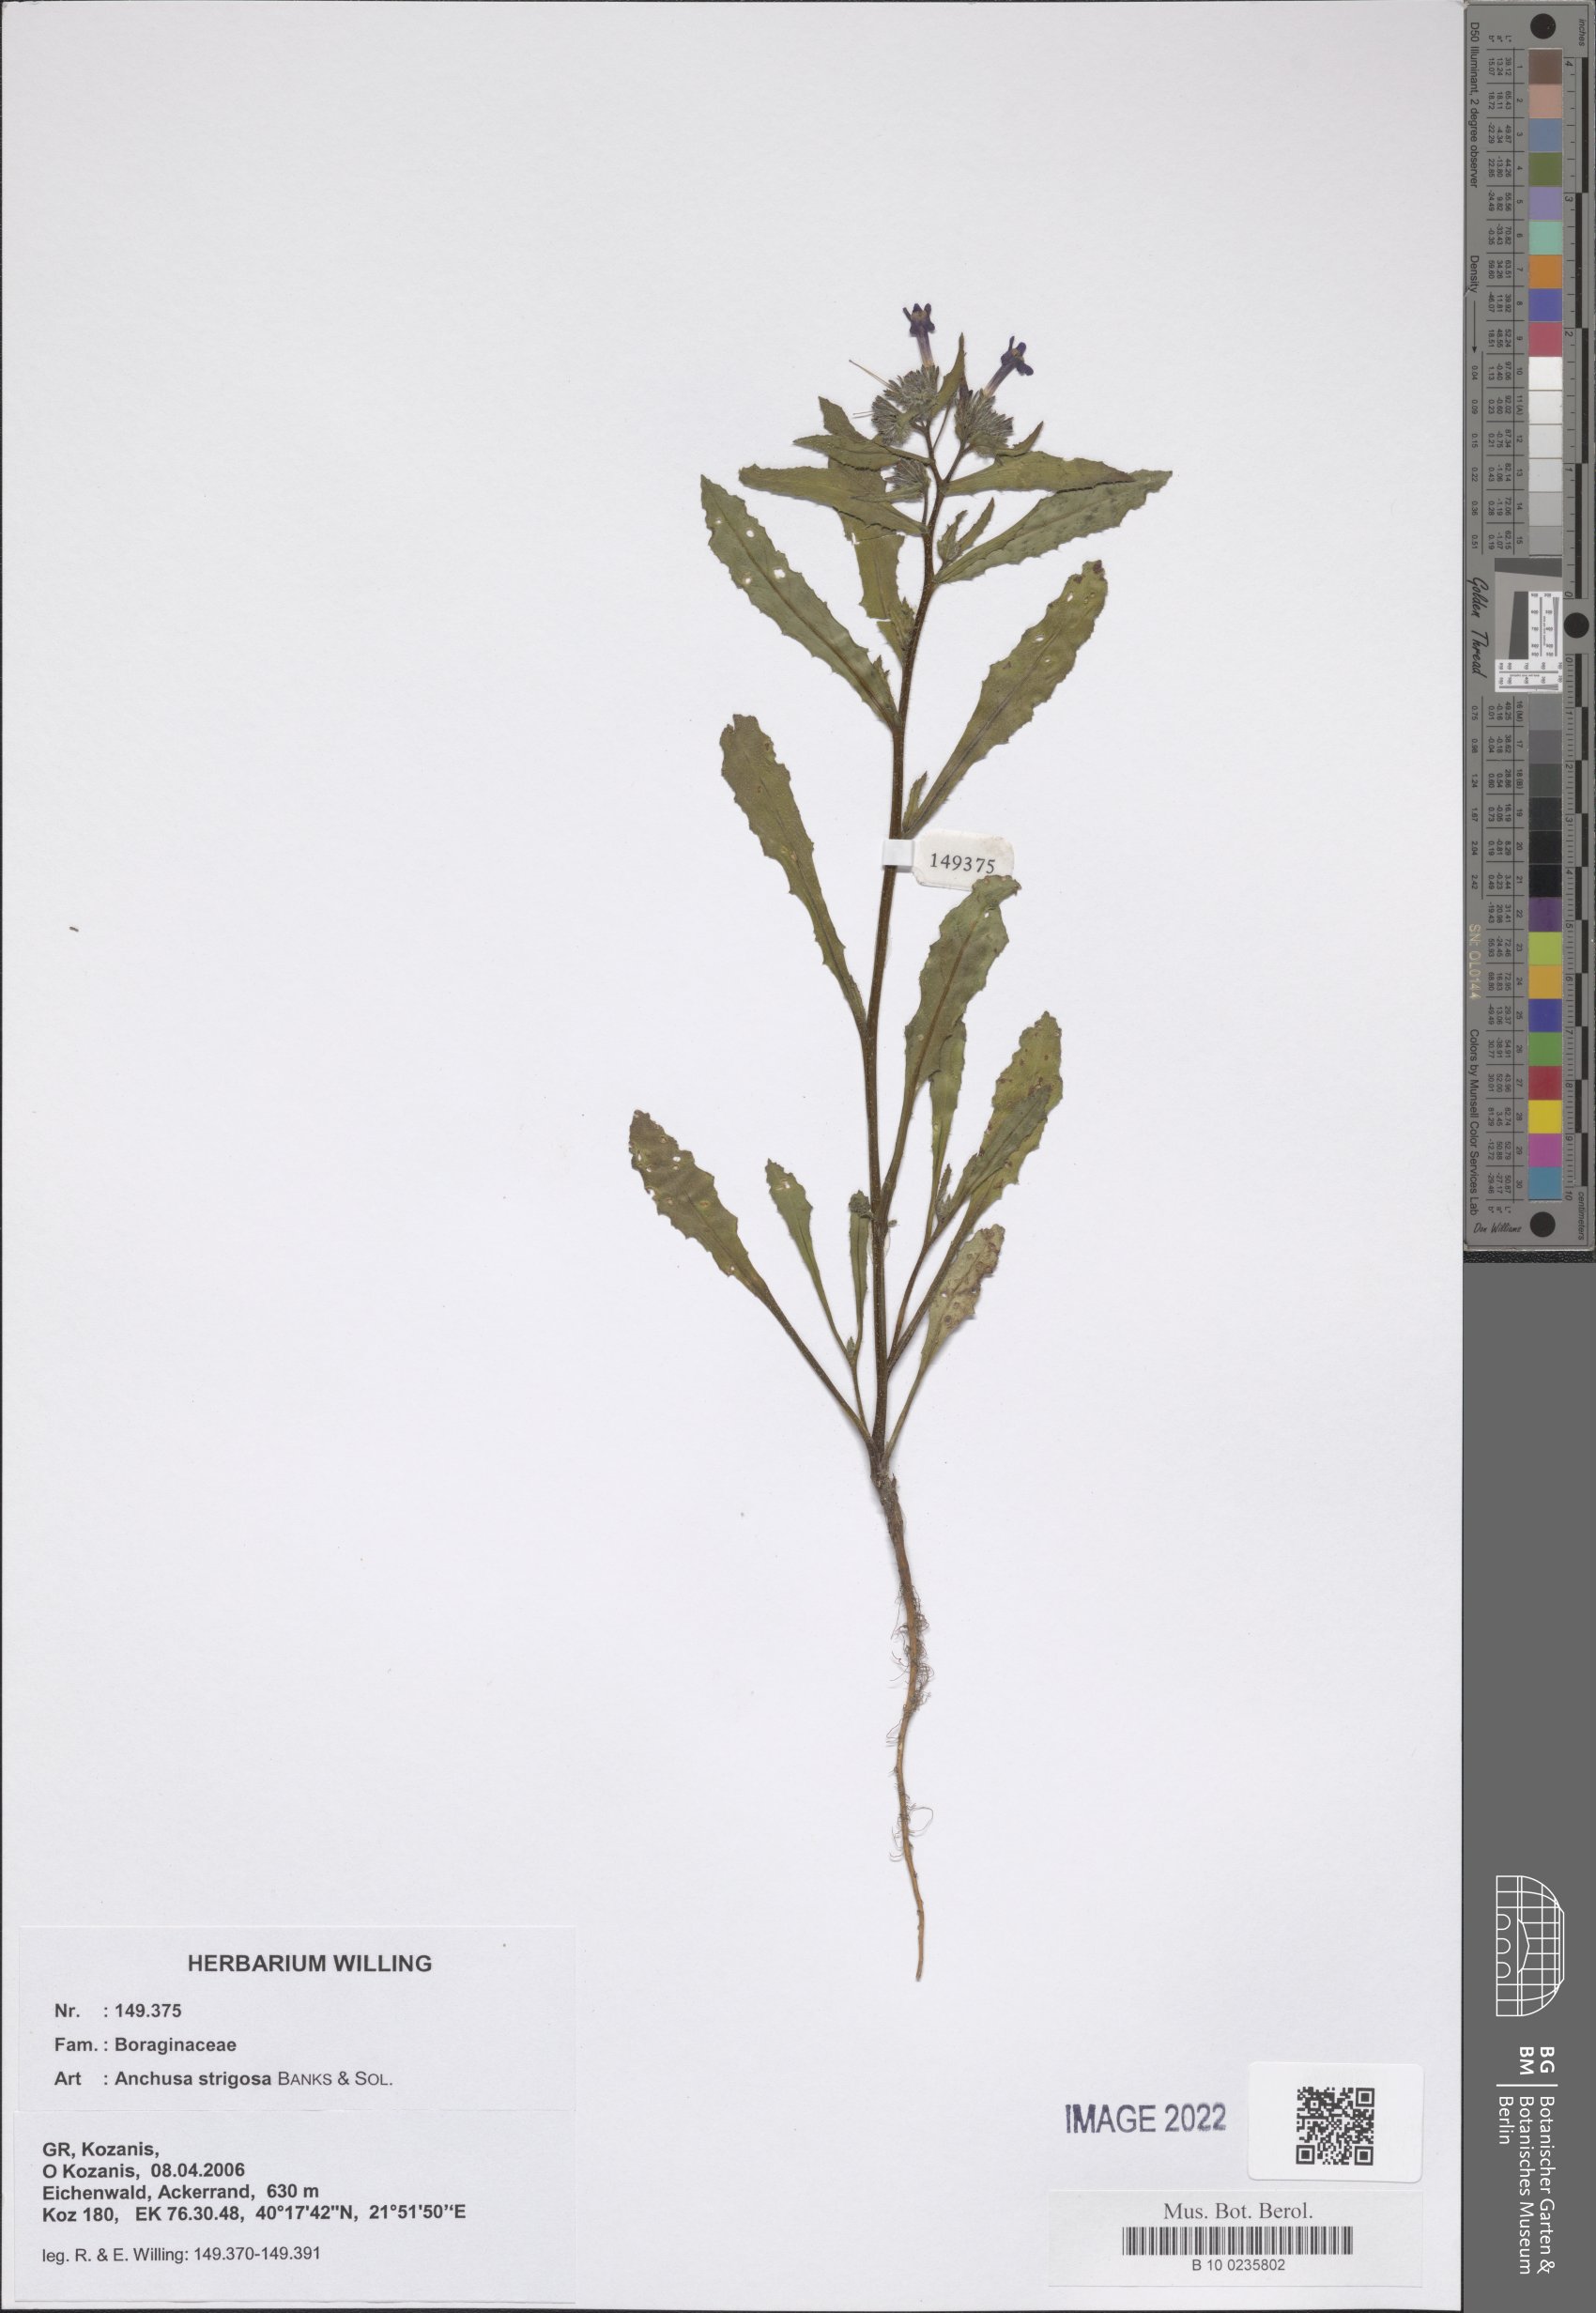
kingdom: Plantae
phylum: Tracheophyta
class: Magnoliopsida
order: Boraginales
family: Boraginaceae
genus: Anchusa
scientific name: Anchusa strigosa
